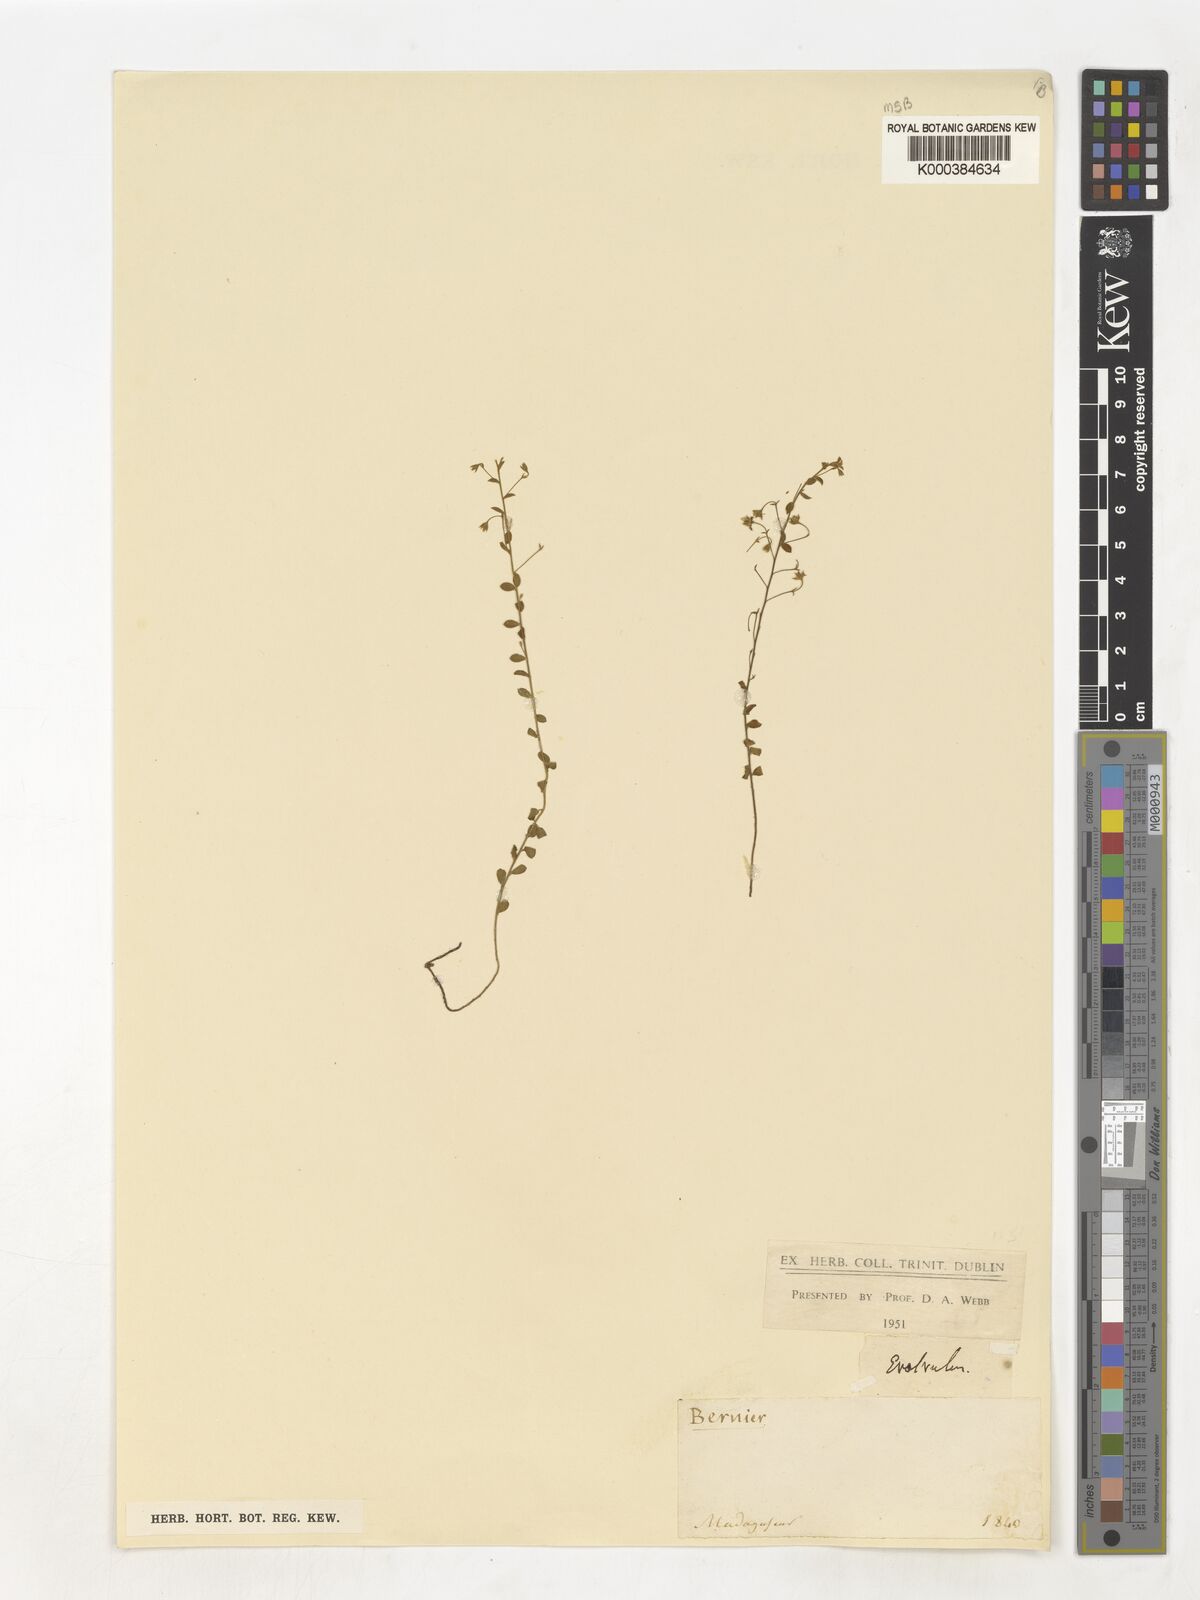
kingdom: Plantae
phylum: Tracheophyta
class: Magnoliopsida
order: Solanales
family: Convolvulaceae
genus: Evolvulus
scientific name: Evolvulus alsinoides
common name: Slender dwarf morning-glory
